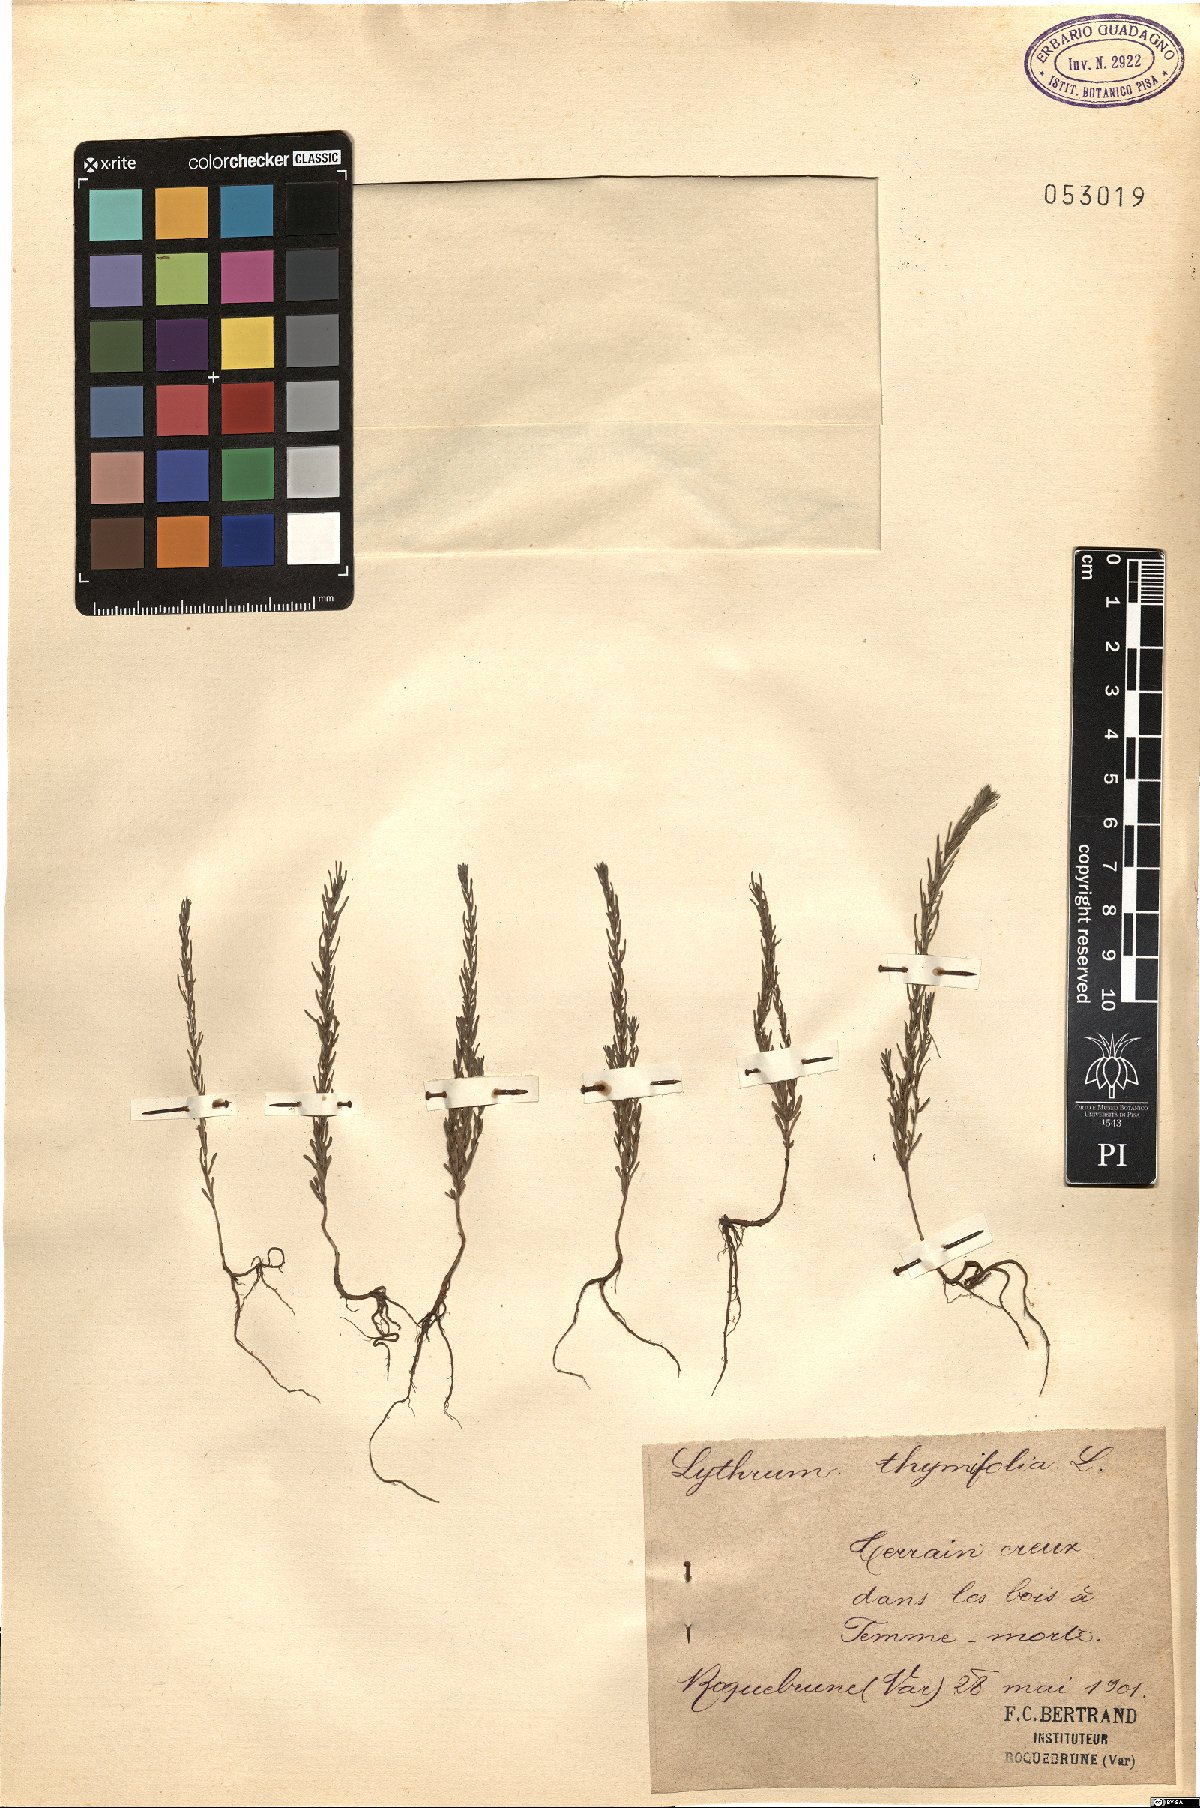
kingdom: Plantae
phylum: Tracheophyta
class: Magnoliopsida
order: Myrtales
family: Lythraceae
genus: Lythrum
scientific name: Lythrum thymifolia
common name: Thymeleaf loosestrife
